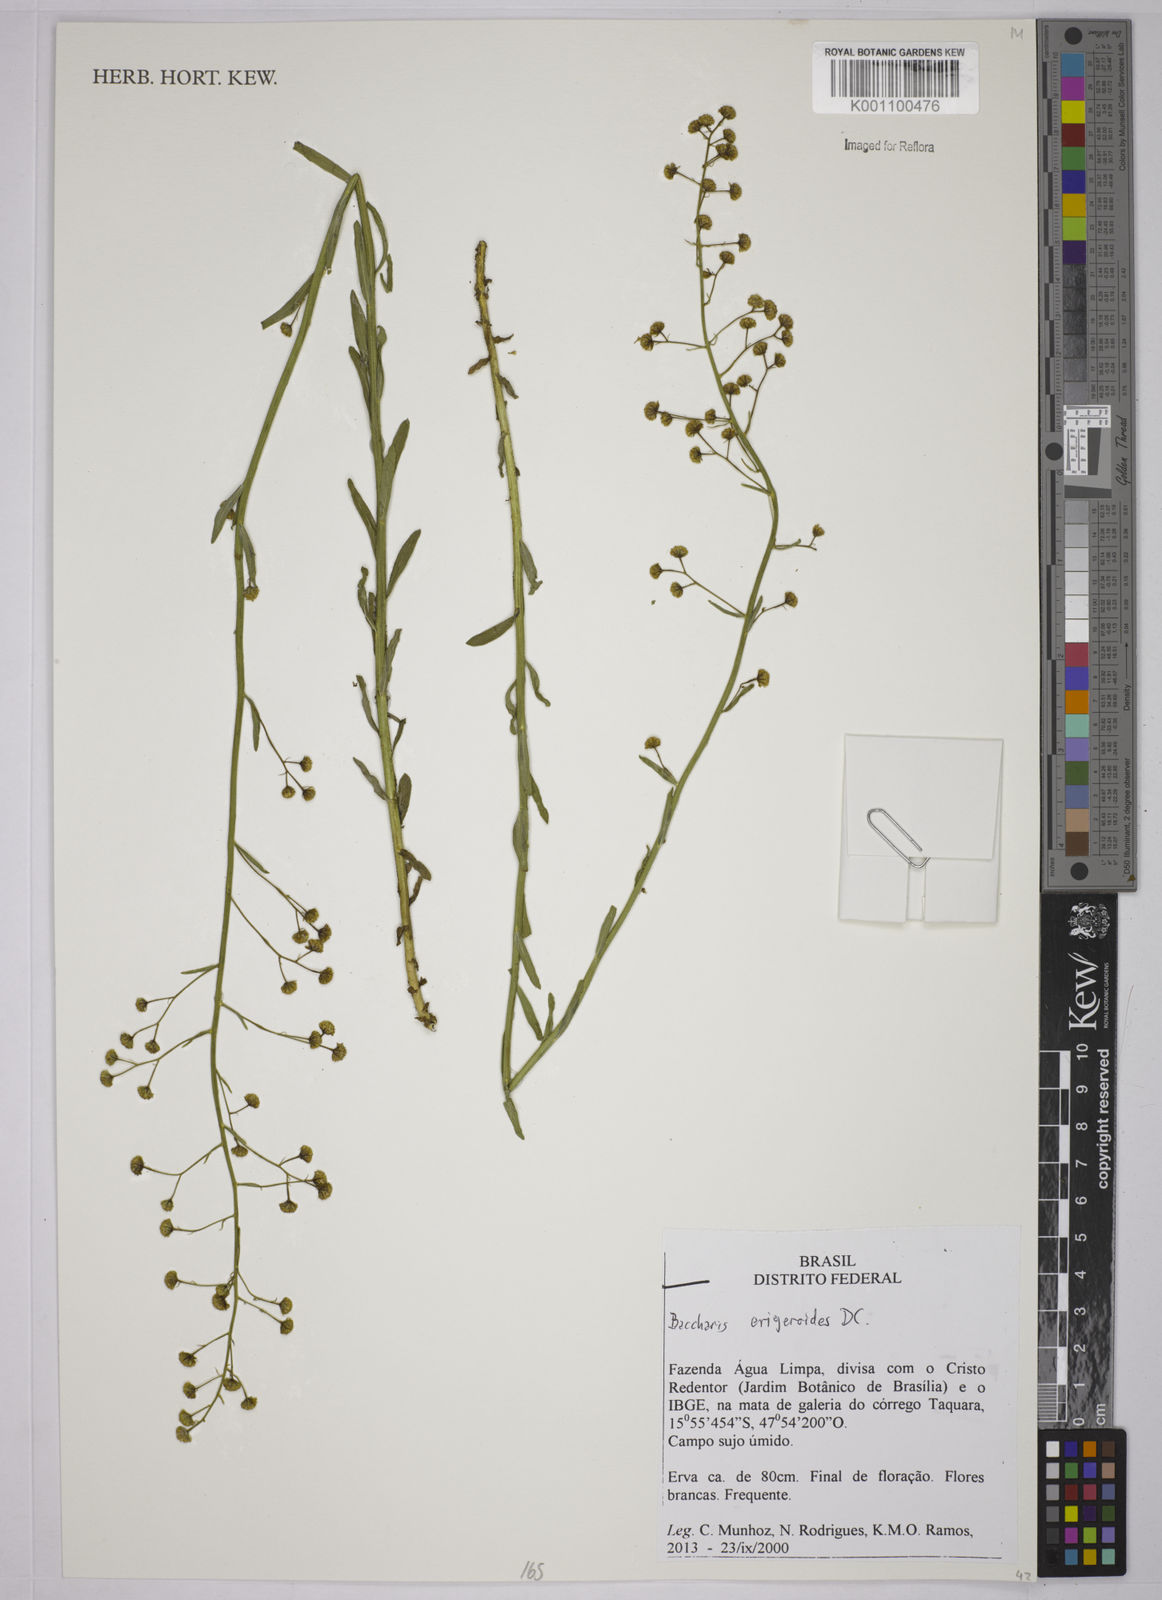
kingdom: Plantae
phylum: Tracheophyta
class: Magnoliopsida
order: Asterales
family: Asteraceae
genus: Baccharis
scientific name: Baccharis erigeroides
